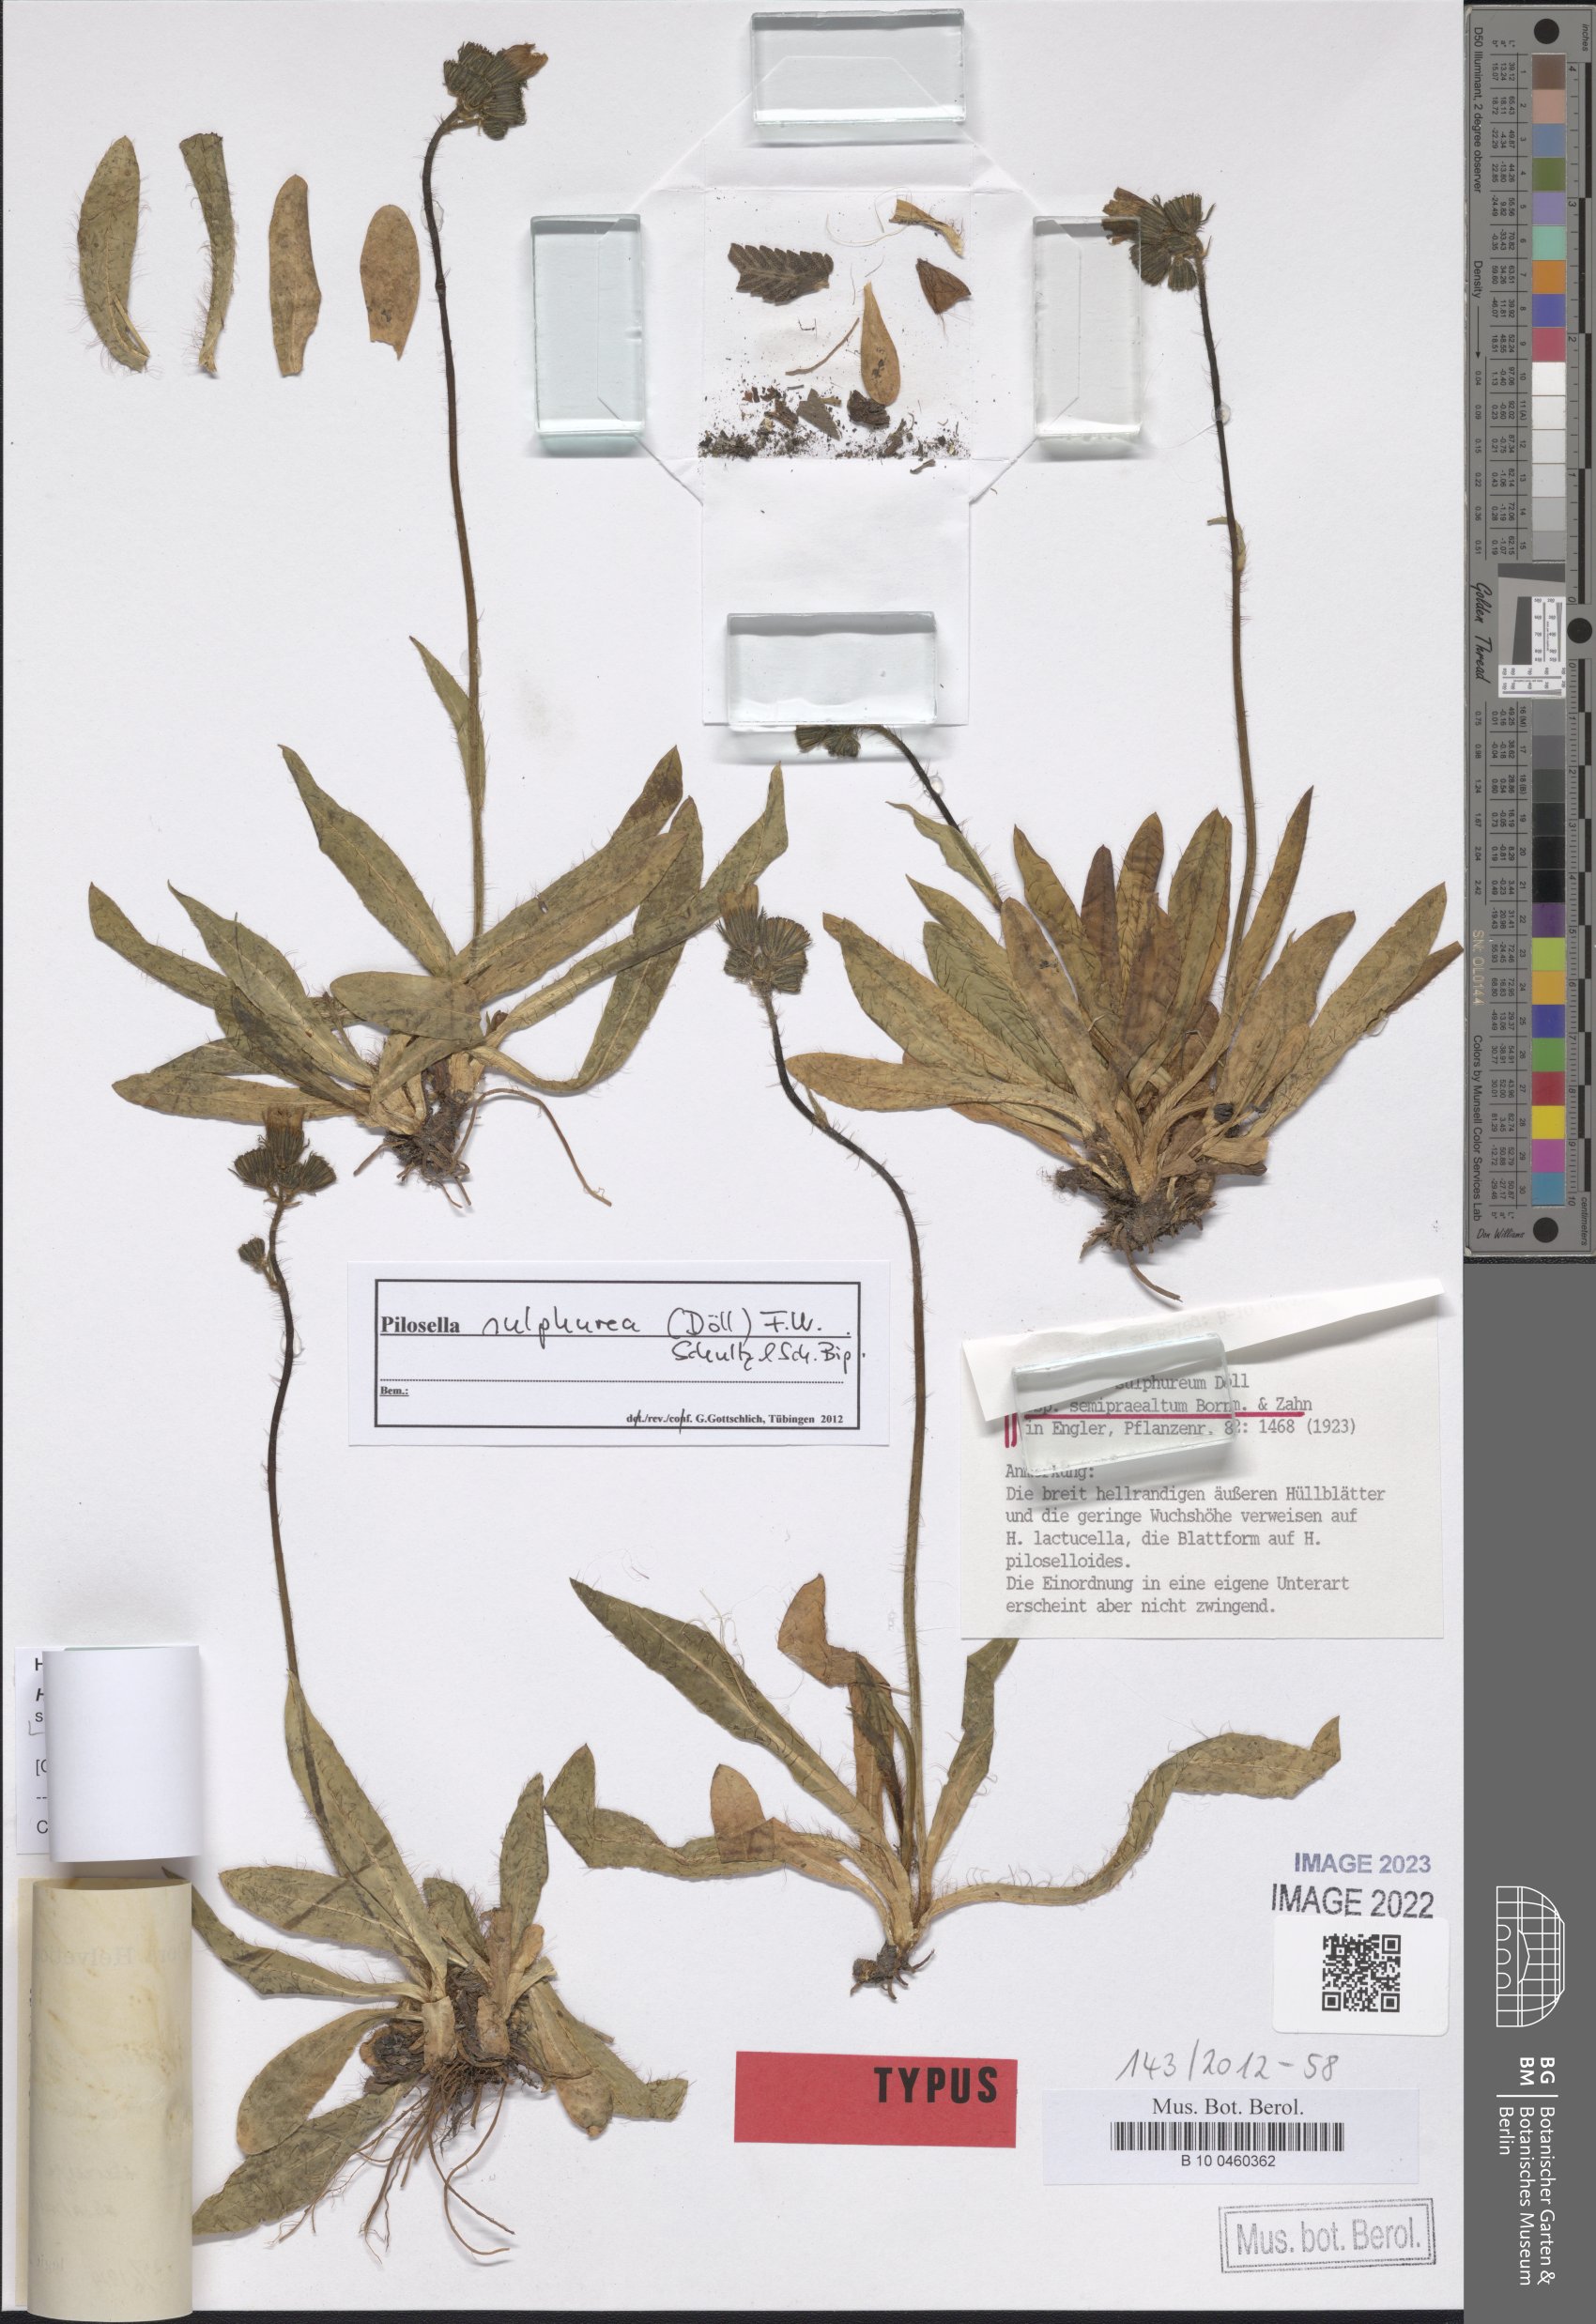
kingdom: Plantae
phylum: Tracheophyta
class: Magnoliopsida
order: Asterales
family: Asteraceae
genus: Pilosella
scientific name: Pilosella sulphurea
